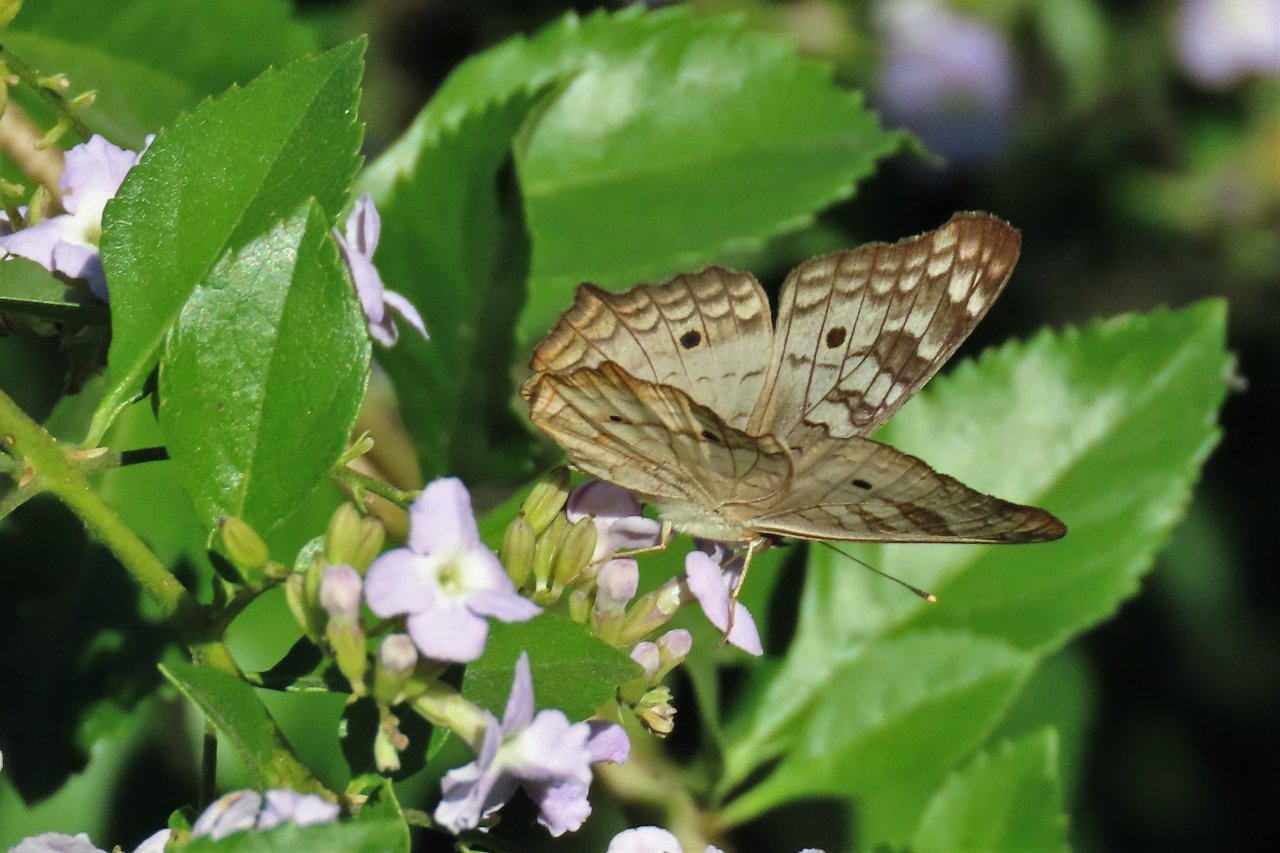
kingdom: Animalia
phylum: Arthropoda
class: Insecta
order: Lepidoptera
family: Nymphalidae
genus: Anartia
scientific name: Anartia jatrophae
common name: White Peacock
